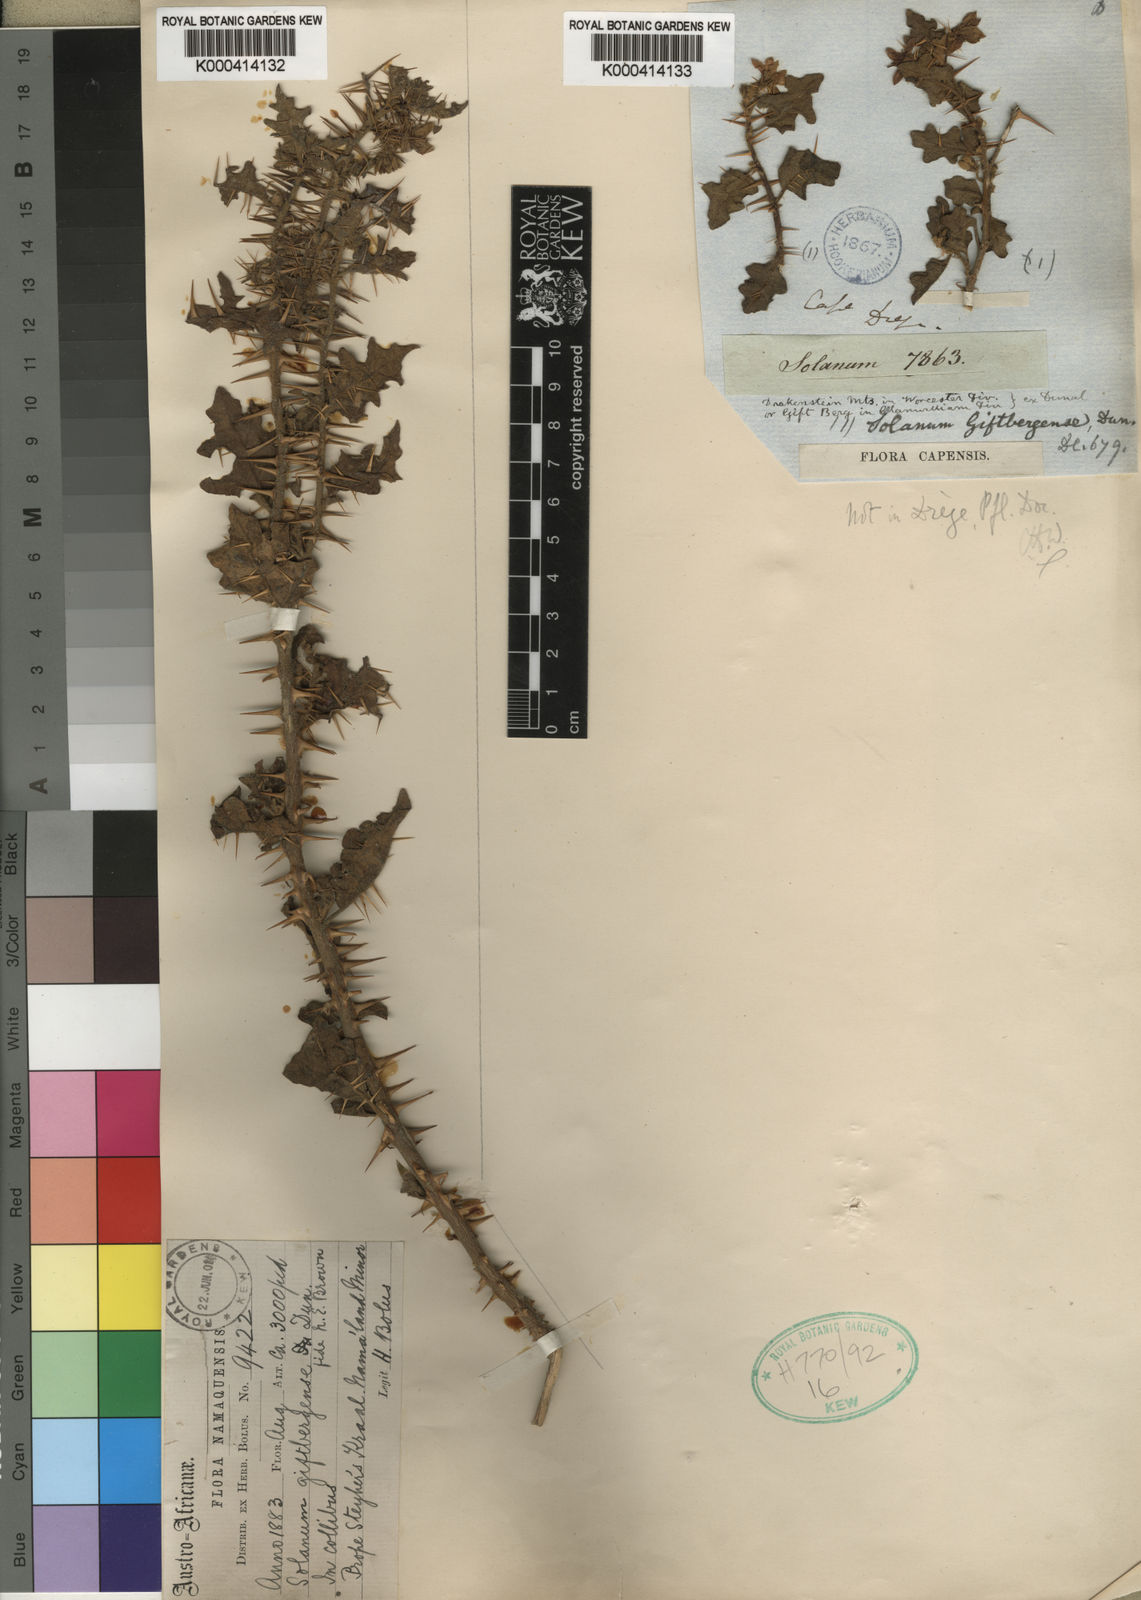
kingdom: Plantae
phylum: Tracheophyta
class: Magnoliopsida
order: Solanales
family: Solanaceae
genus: Solanum
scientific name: Solanum humile
